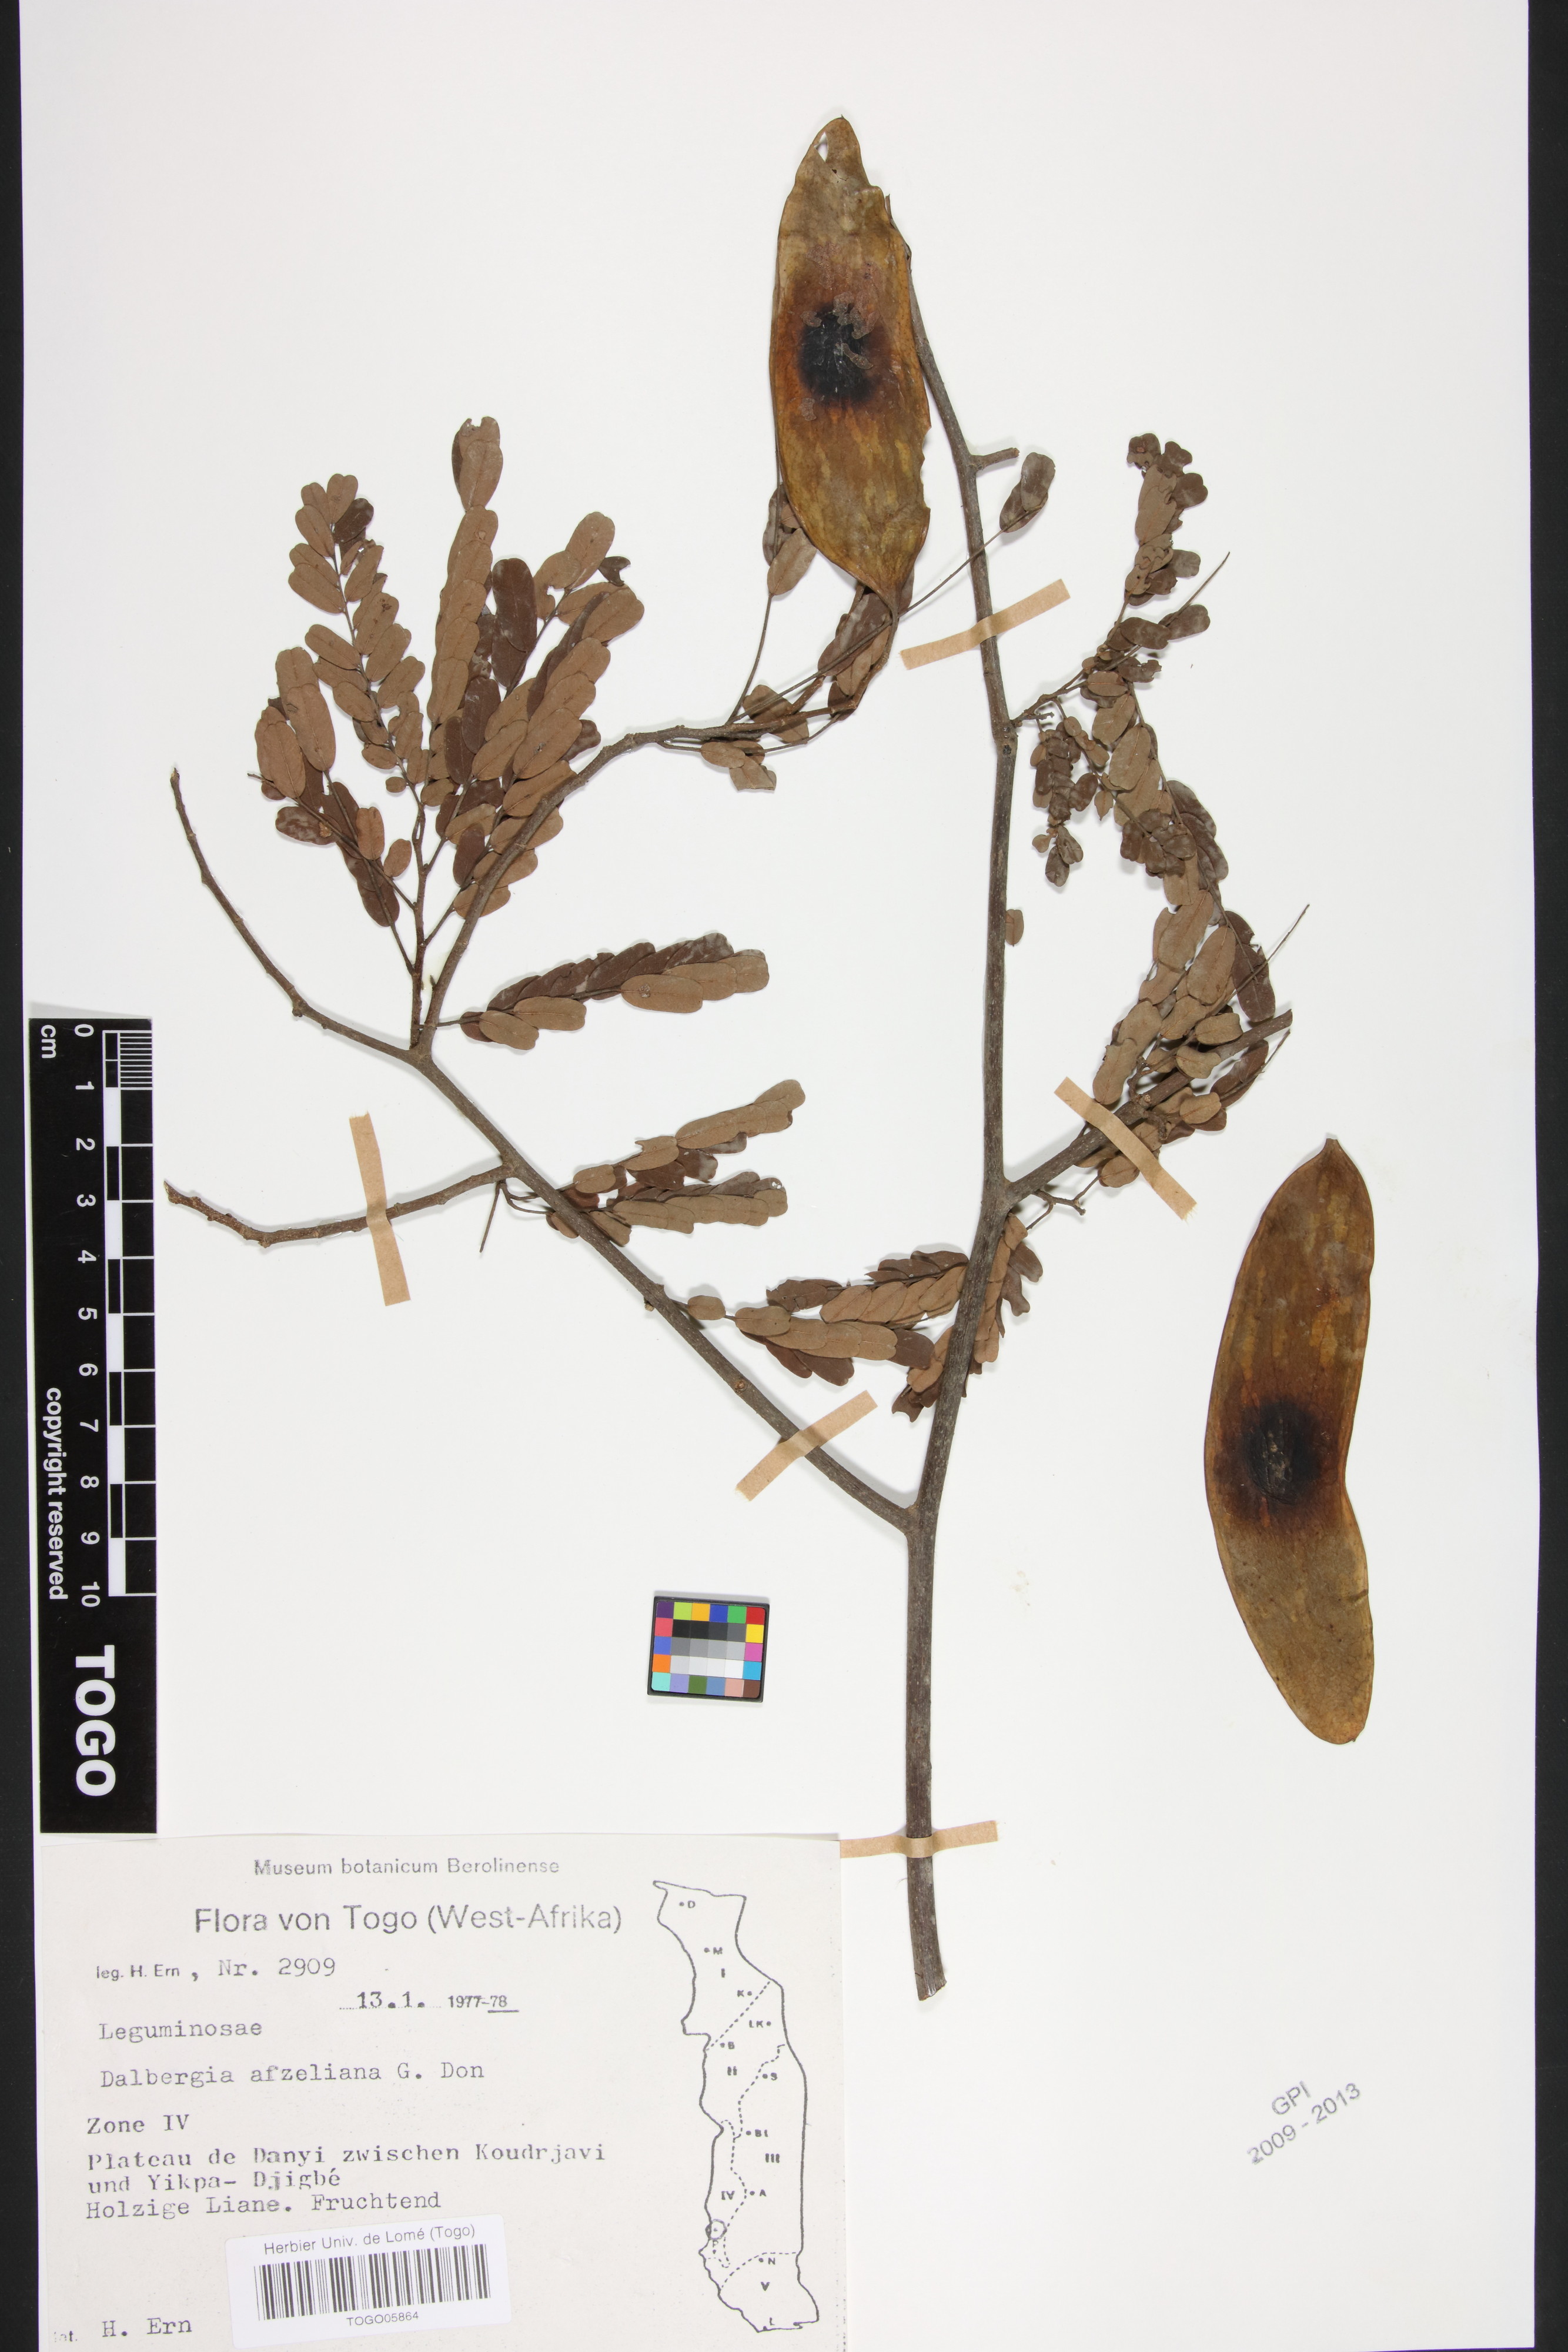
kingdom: Plantae
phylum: Tracheophyta
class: Magnoliopsida
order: Fabales
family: Fabaceae
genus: Dalbergia
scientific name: Dalbergia afzeliana
